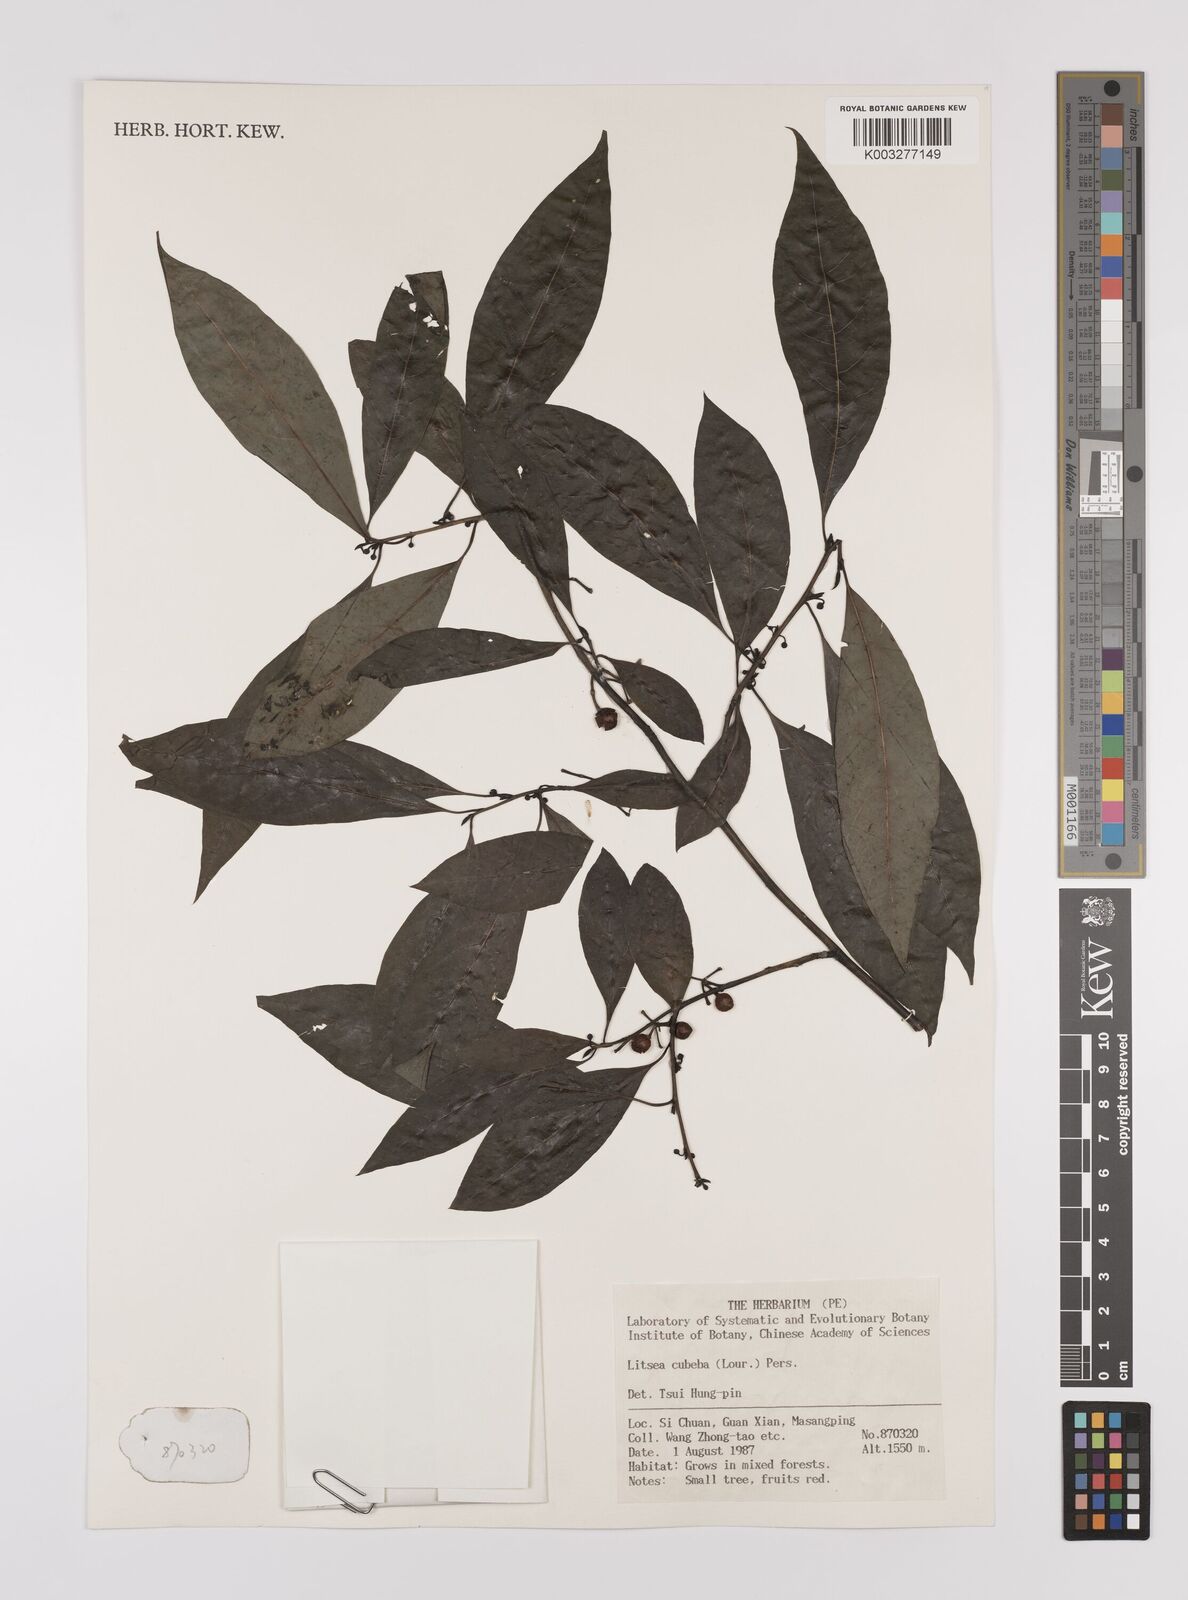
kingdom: Plantae
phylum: Tracheophyta
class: Magnoliopsida
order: Laurales
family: Lauraceae
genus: Litsea
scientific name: Litsea cubeba
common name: Mountain-pepper
